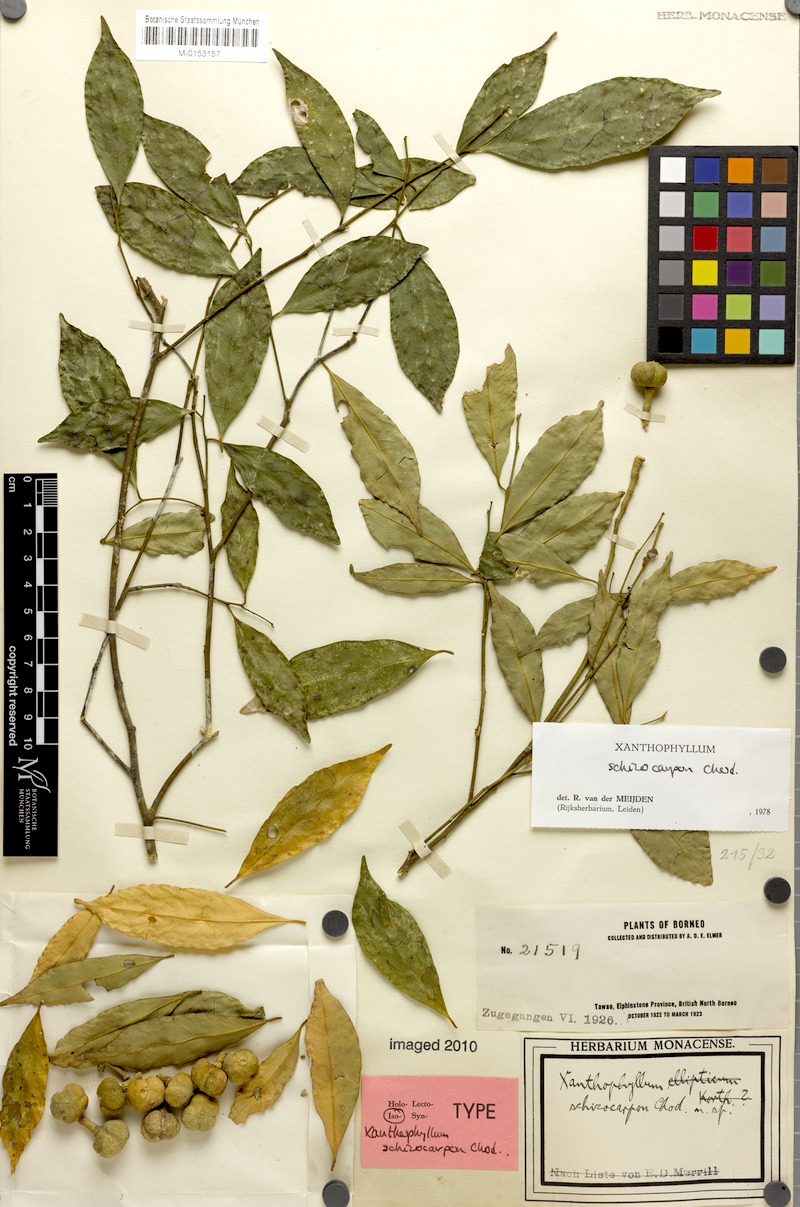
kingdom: Plantae
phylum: Tracheophyta
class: Magnoliopsida
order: Fabales
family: Polygalaceae
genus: Xanthophyllum
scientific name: Xanthophyllum schizocarpon
